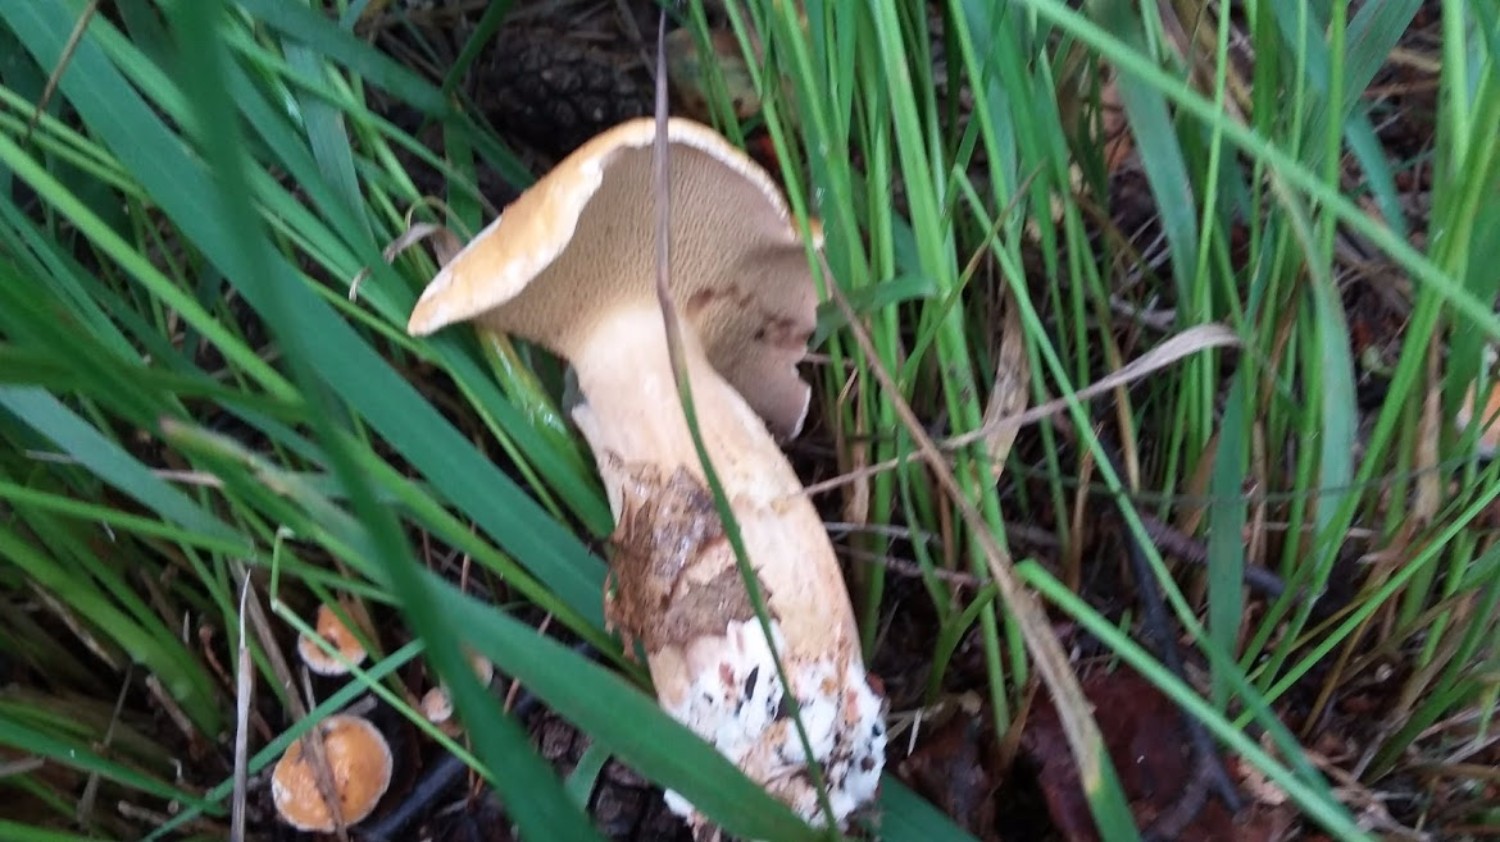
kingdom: Fungi
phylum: Basidiomycota
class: Agaricomycetes
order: Boletales
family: Suillaceae
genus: Suillus
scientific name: Suillus bovinus
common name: grovporet slimrørhat
